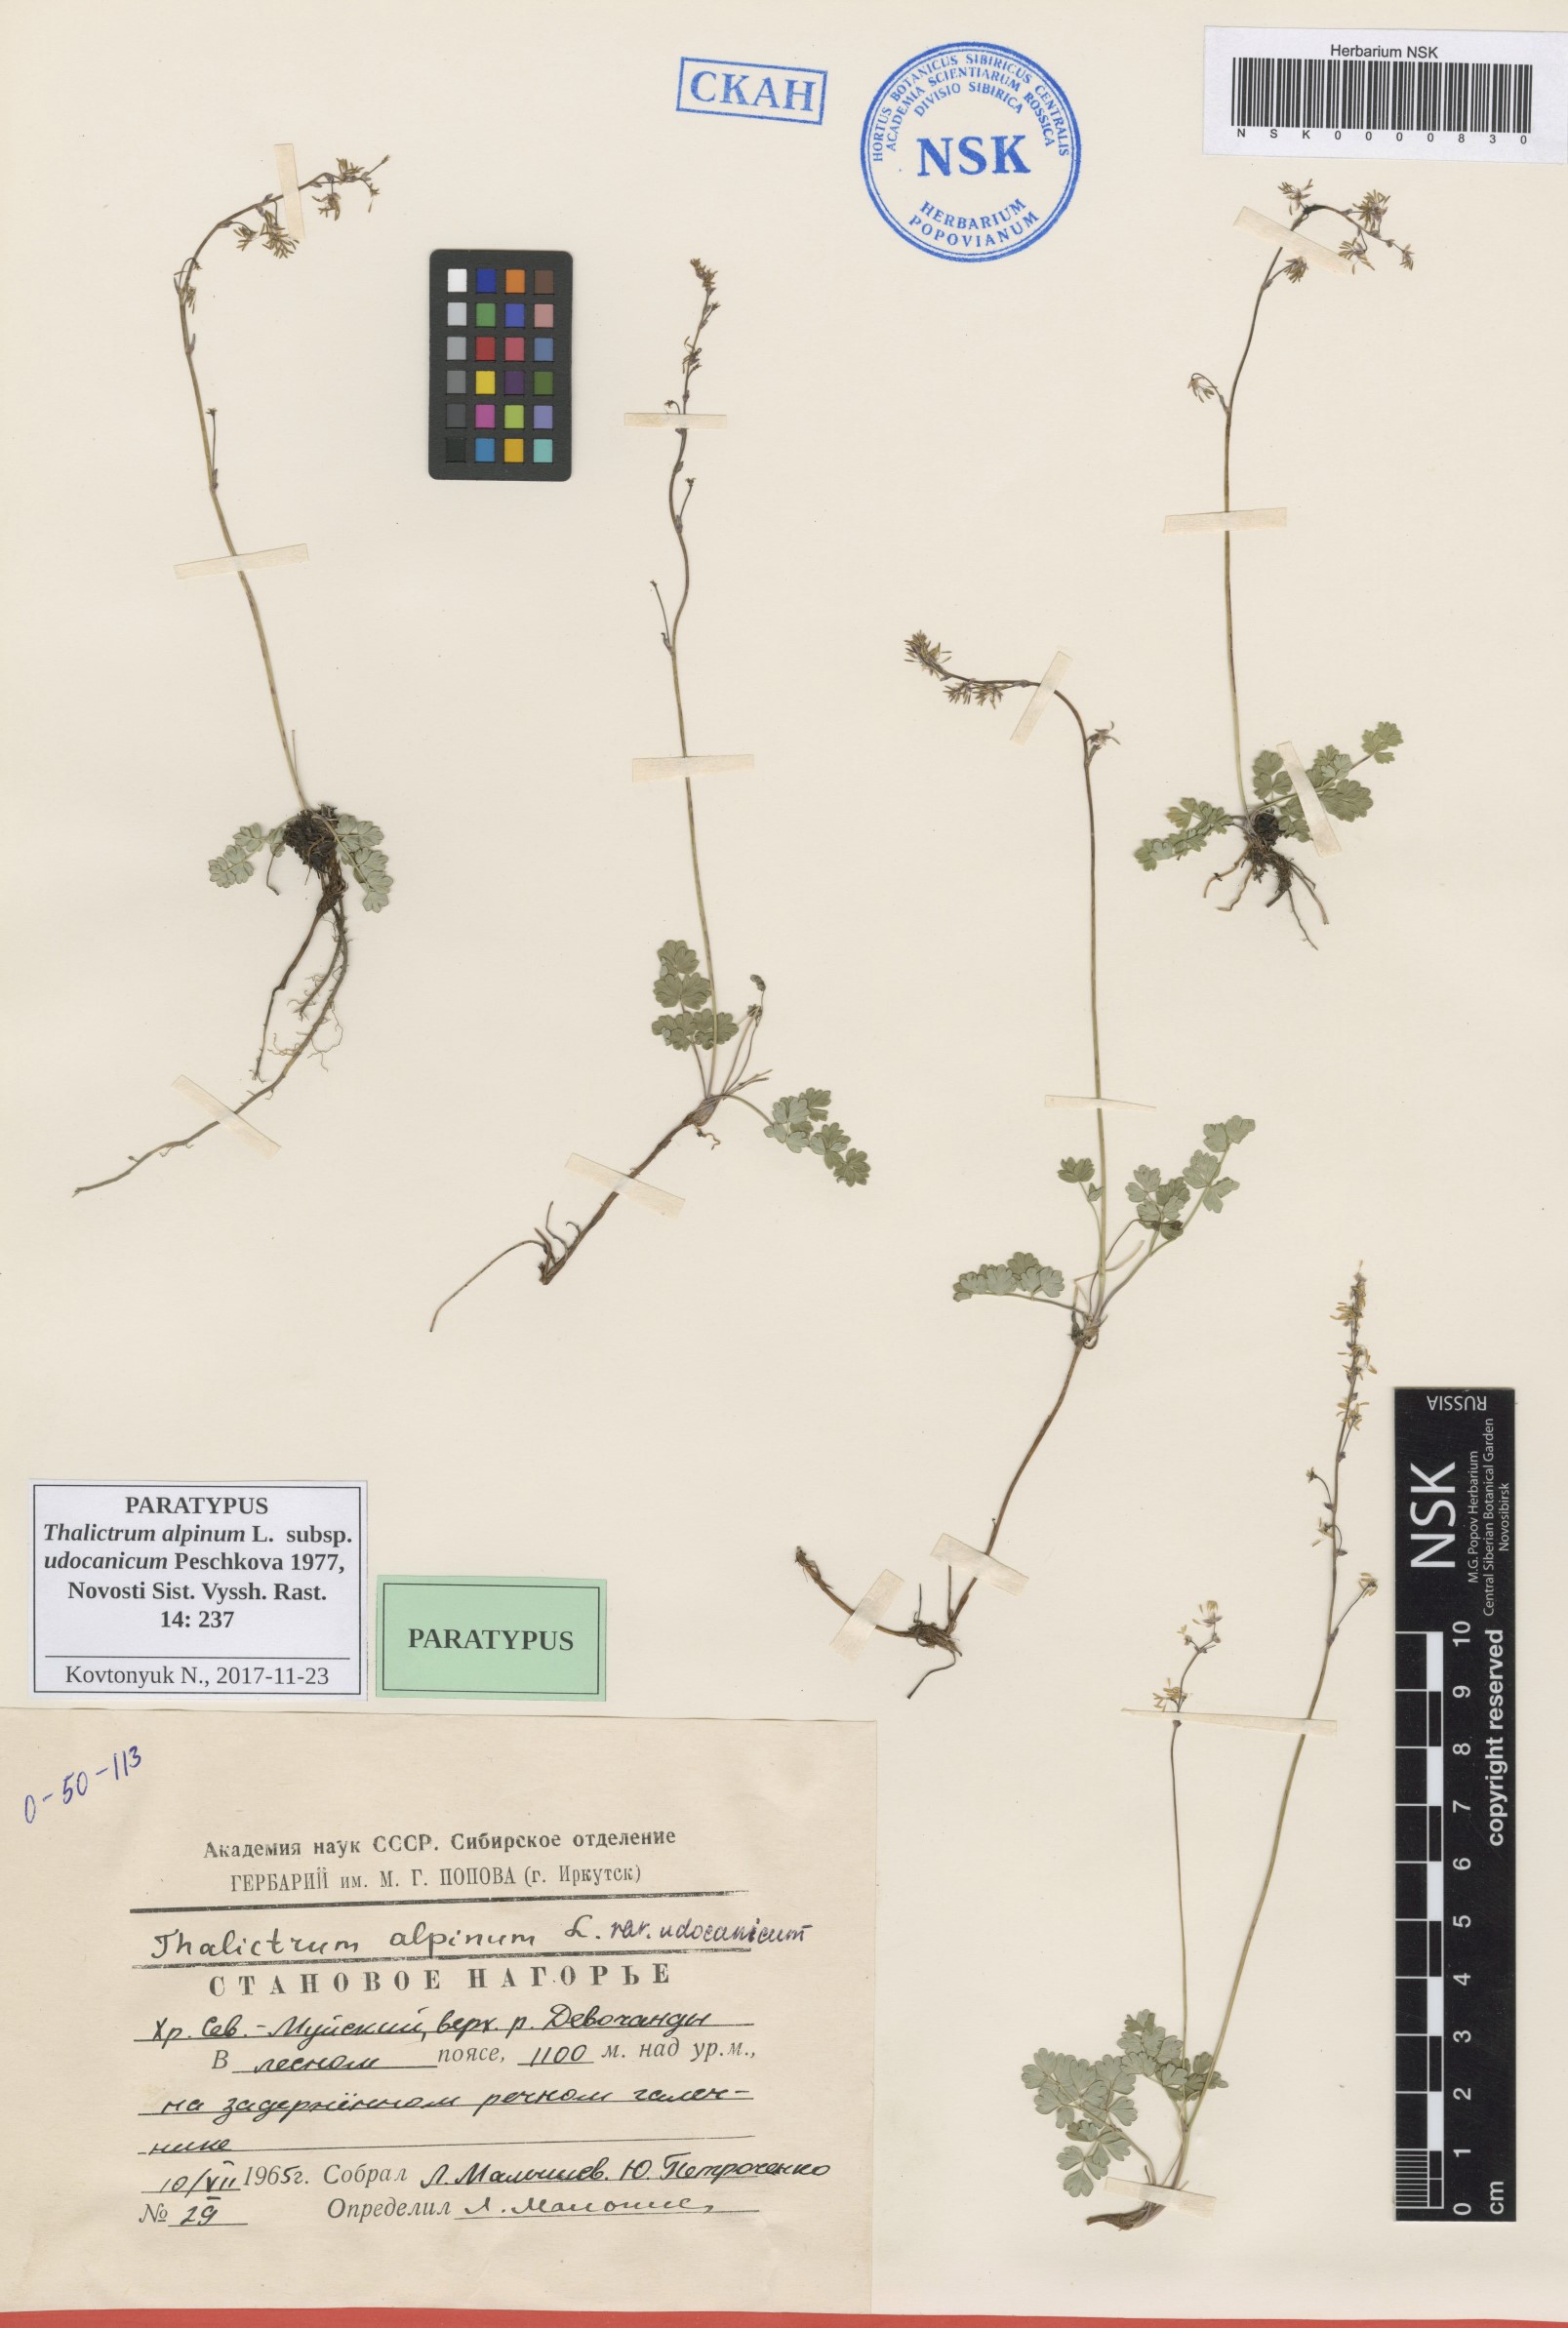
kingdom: Plantae
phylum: Tracheophyta
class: Magnoliopsida
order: Ranunculales
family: Ranunculaceae
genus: Thalictrum
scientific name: Thalictrum alpinum
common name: Alpine meadow-rue
